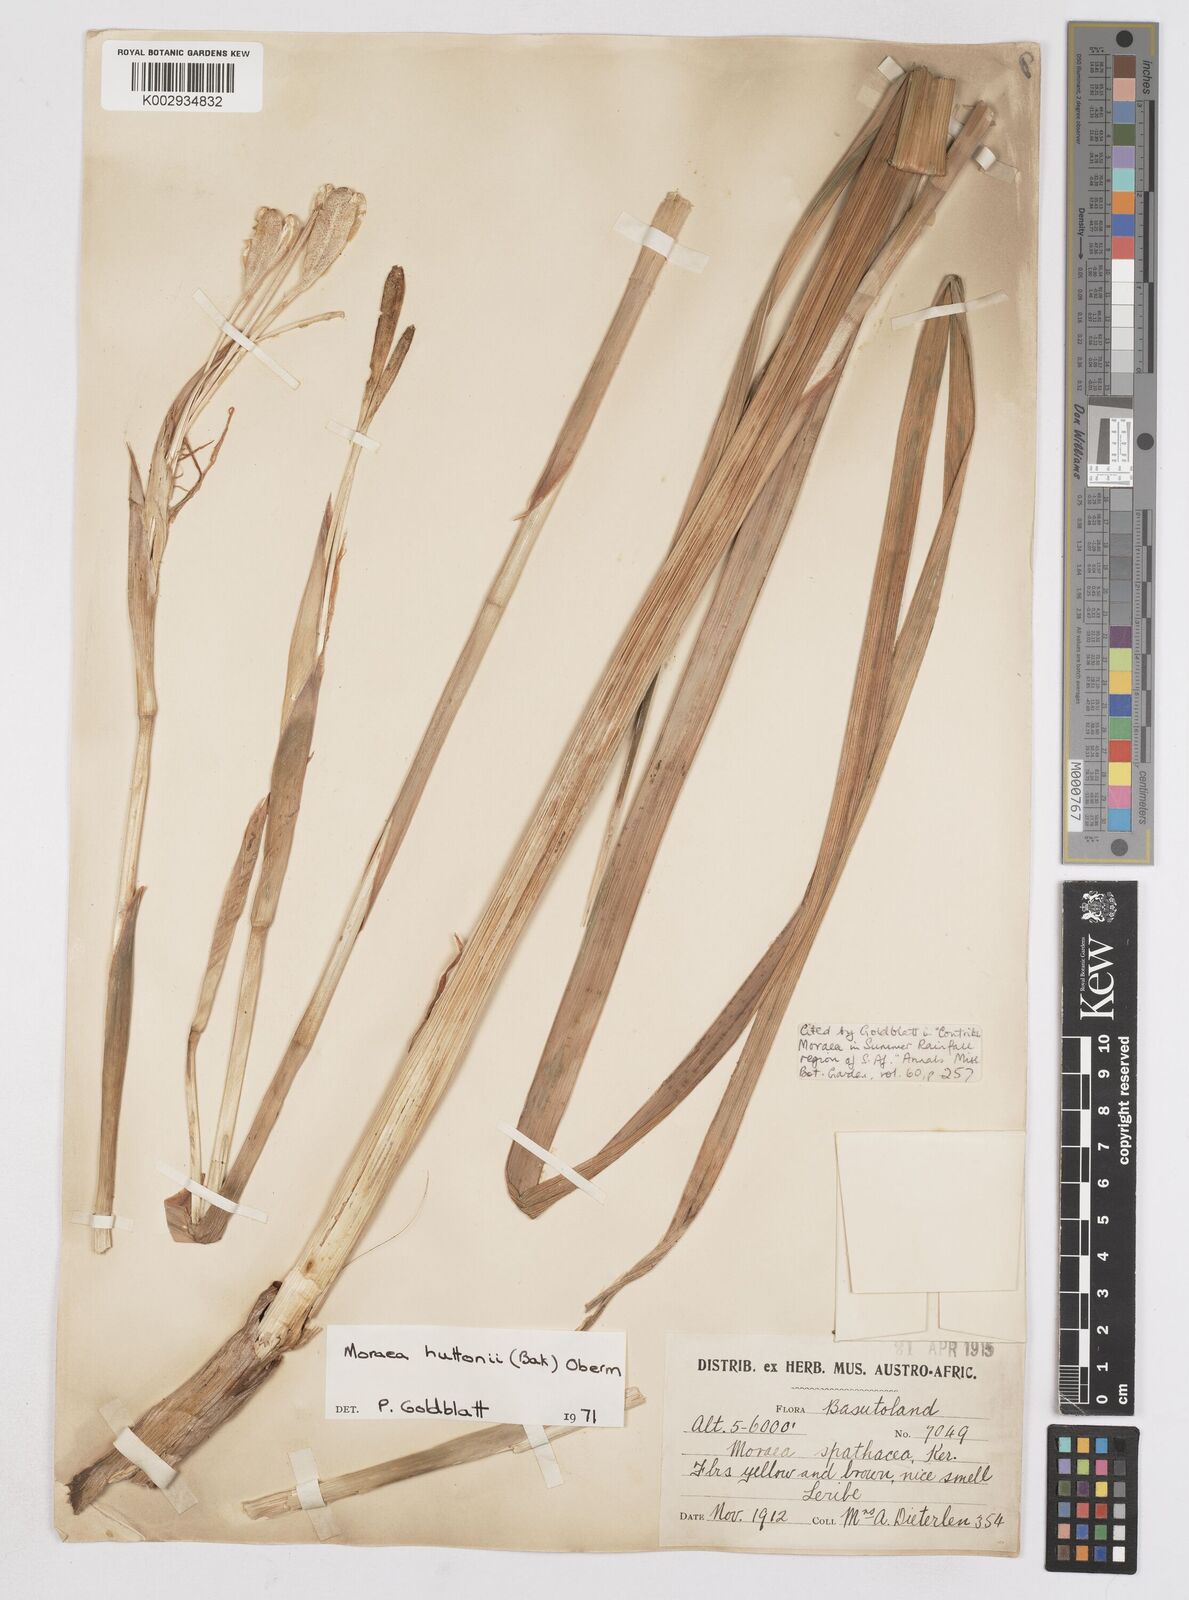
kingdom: Plantae
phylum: Tracheophyta
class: Liliopsida
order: Asparagales
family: Iridaceae
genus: Moraea
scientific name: Moraea huttonii
